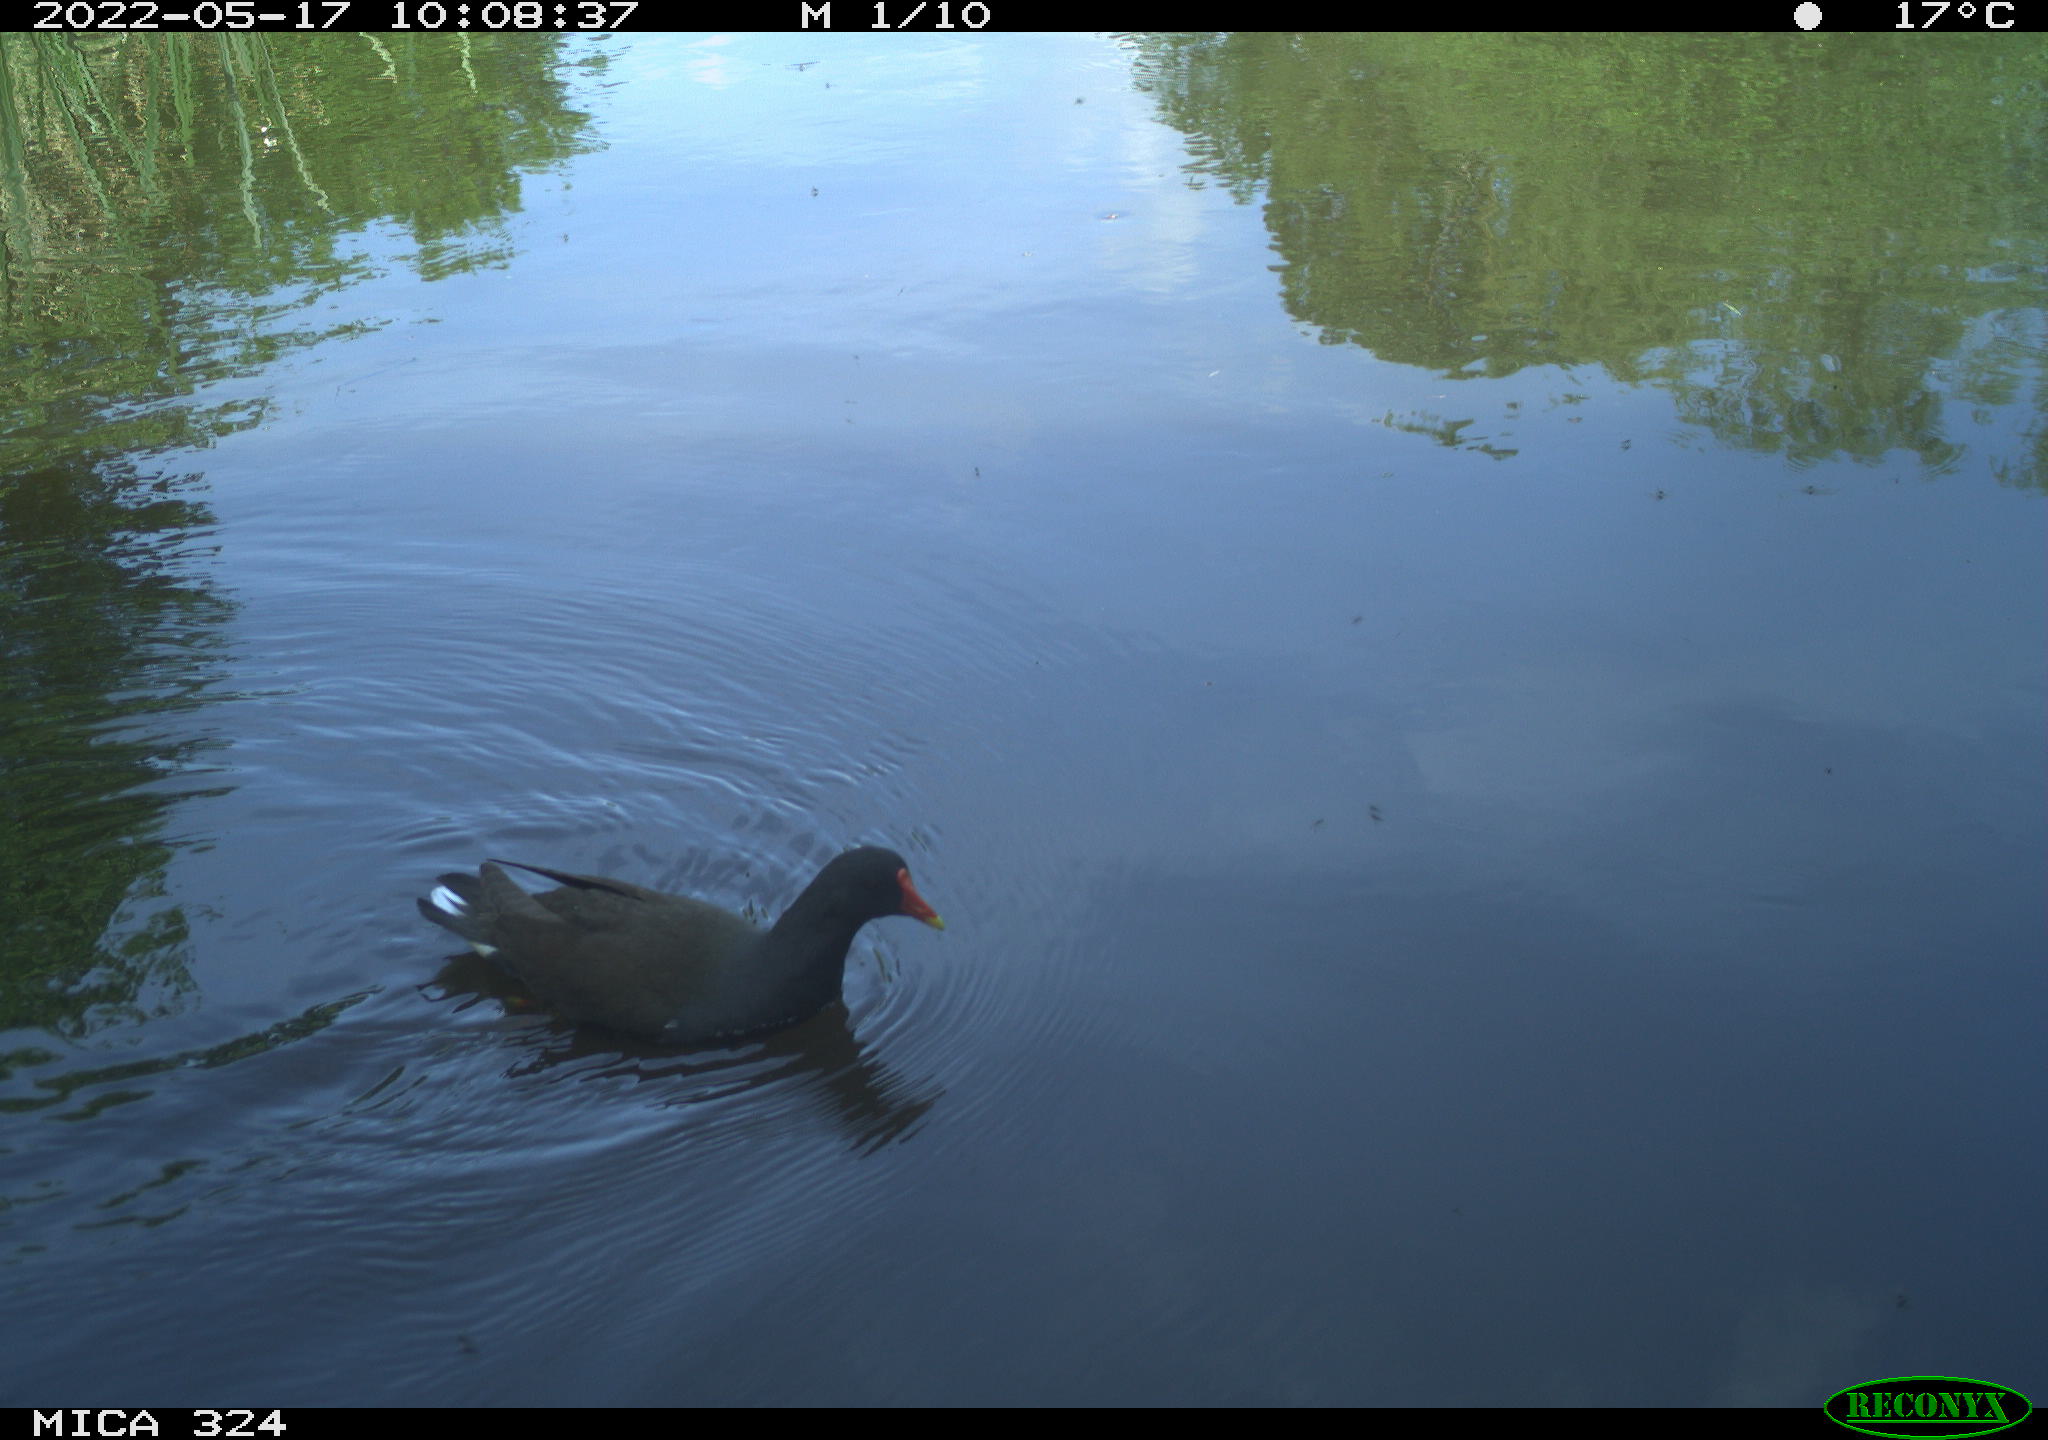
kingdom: Animalia
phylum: Chordata
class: Aves
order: Gruiformes
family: Rallidae
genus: Gallinula
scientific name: Gallinula chloropus
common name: Common moorhen
